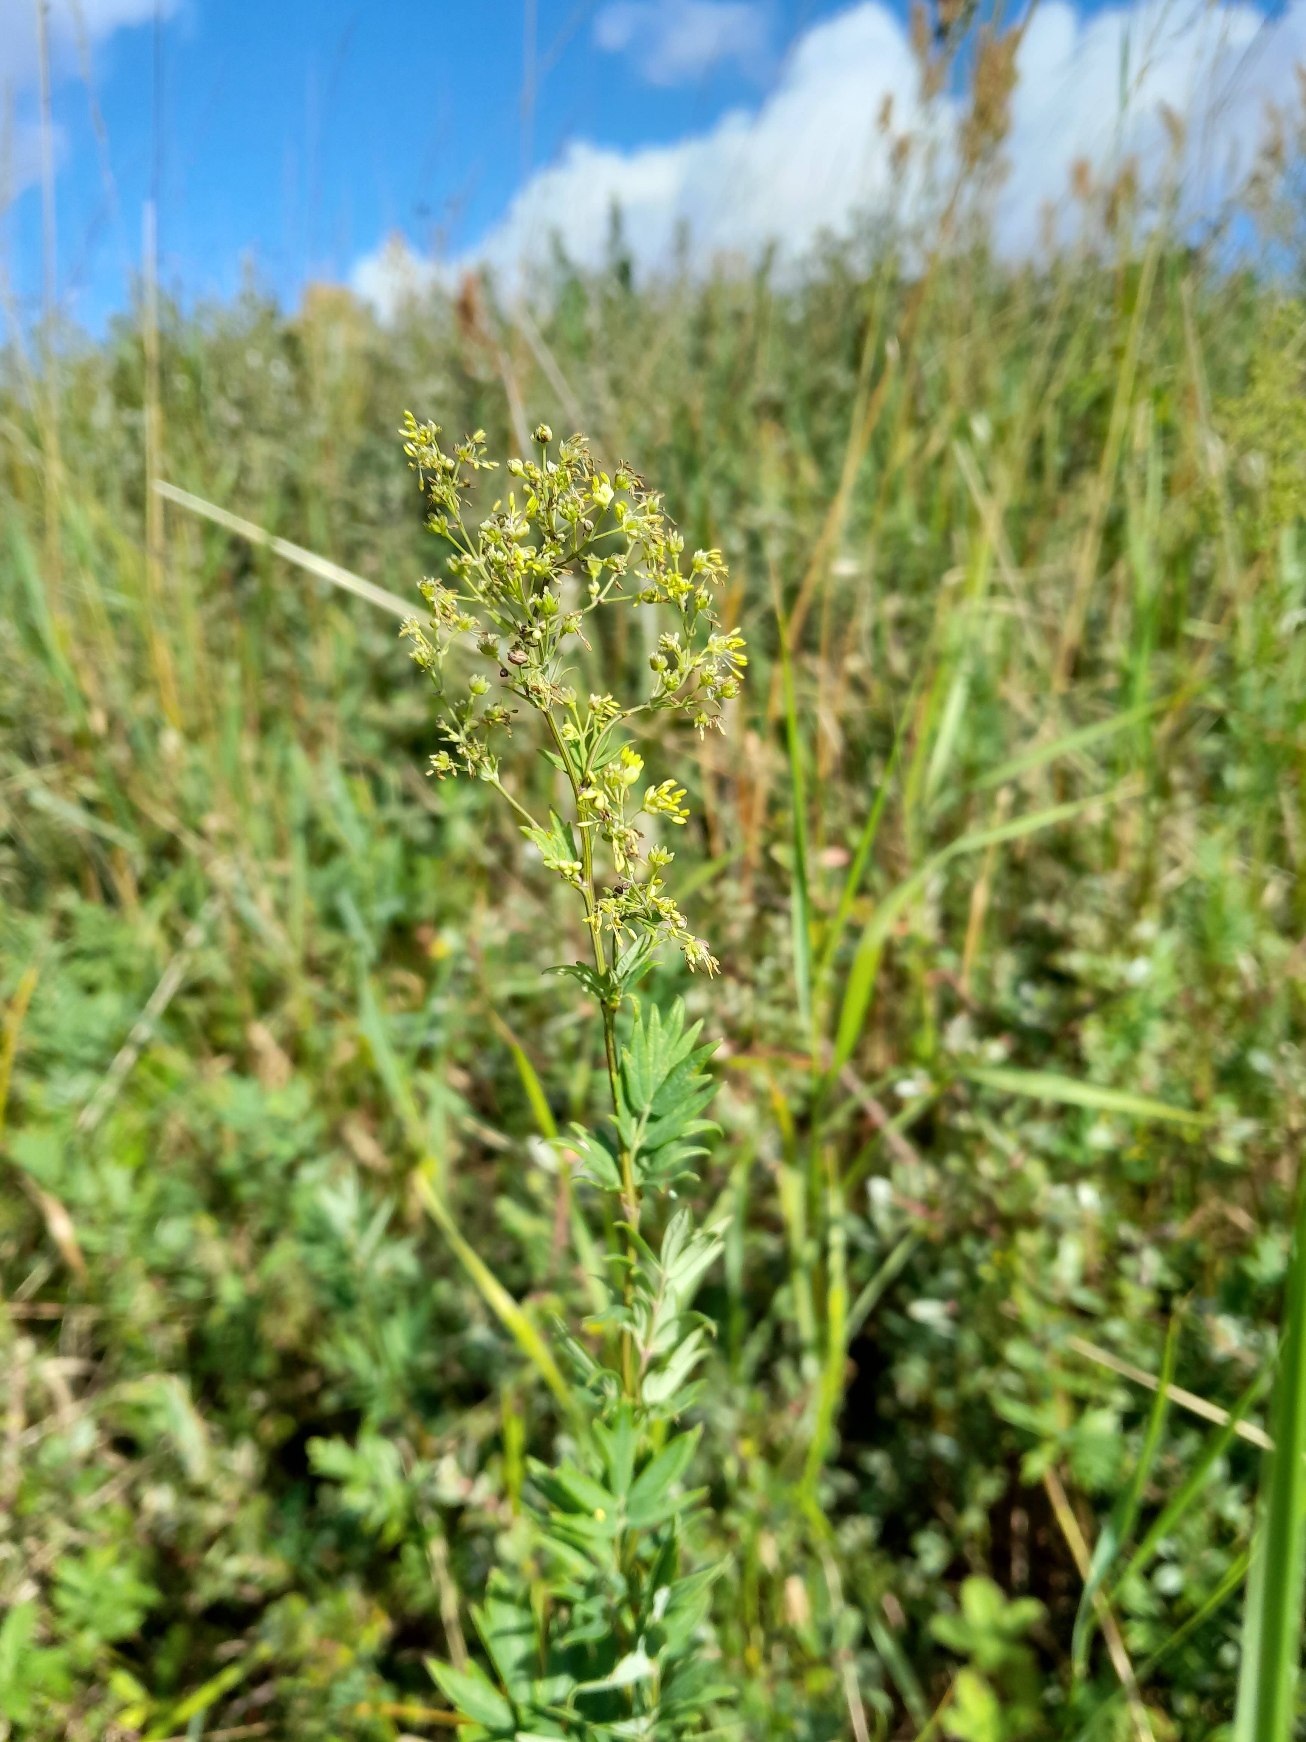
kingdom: Plantae
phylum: Tracheophyta
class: Magnoliopsida
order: Ranunculales
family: Ranunculaceae
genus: Thalictrum
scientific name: Thalictrum simplex
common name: Rank frøstjerne
